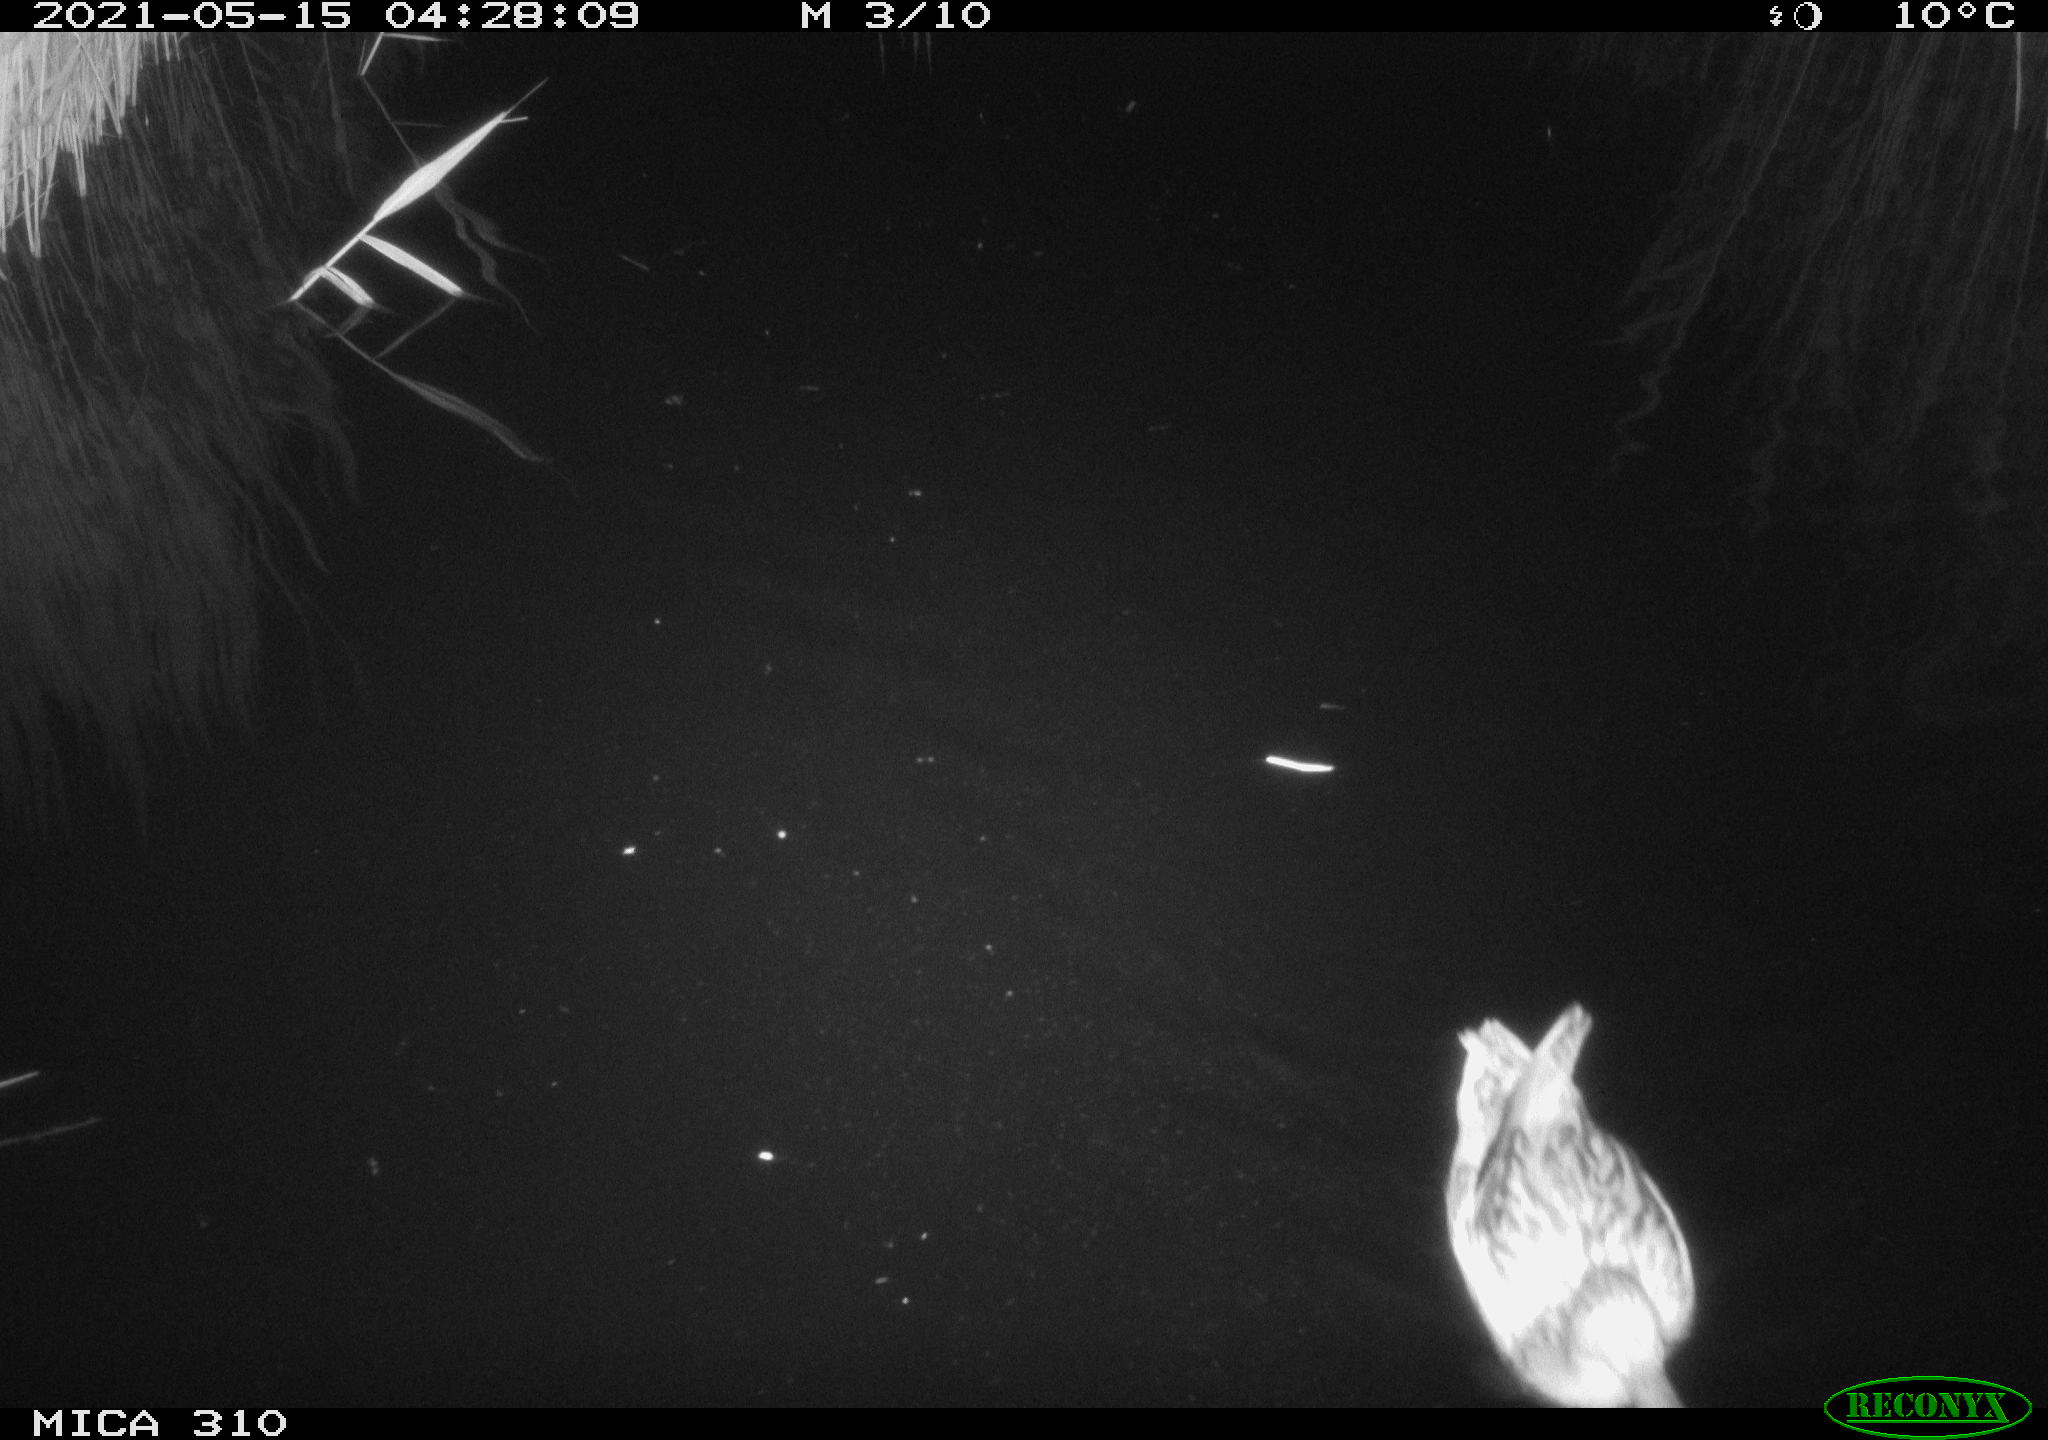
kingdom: Animalia
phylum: Chordata
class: Aves
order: Anseriformes
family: Anatidae
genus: Anas
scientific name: Anas platyrhynchos
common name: Mallard
